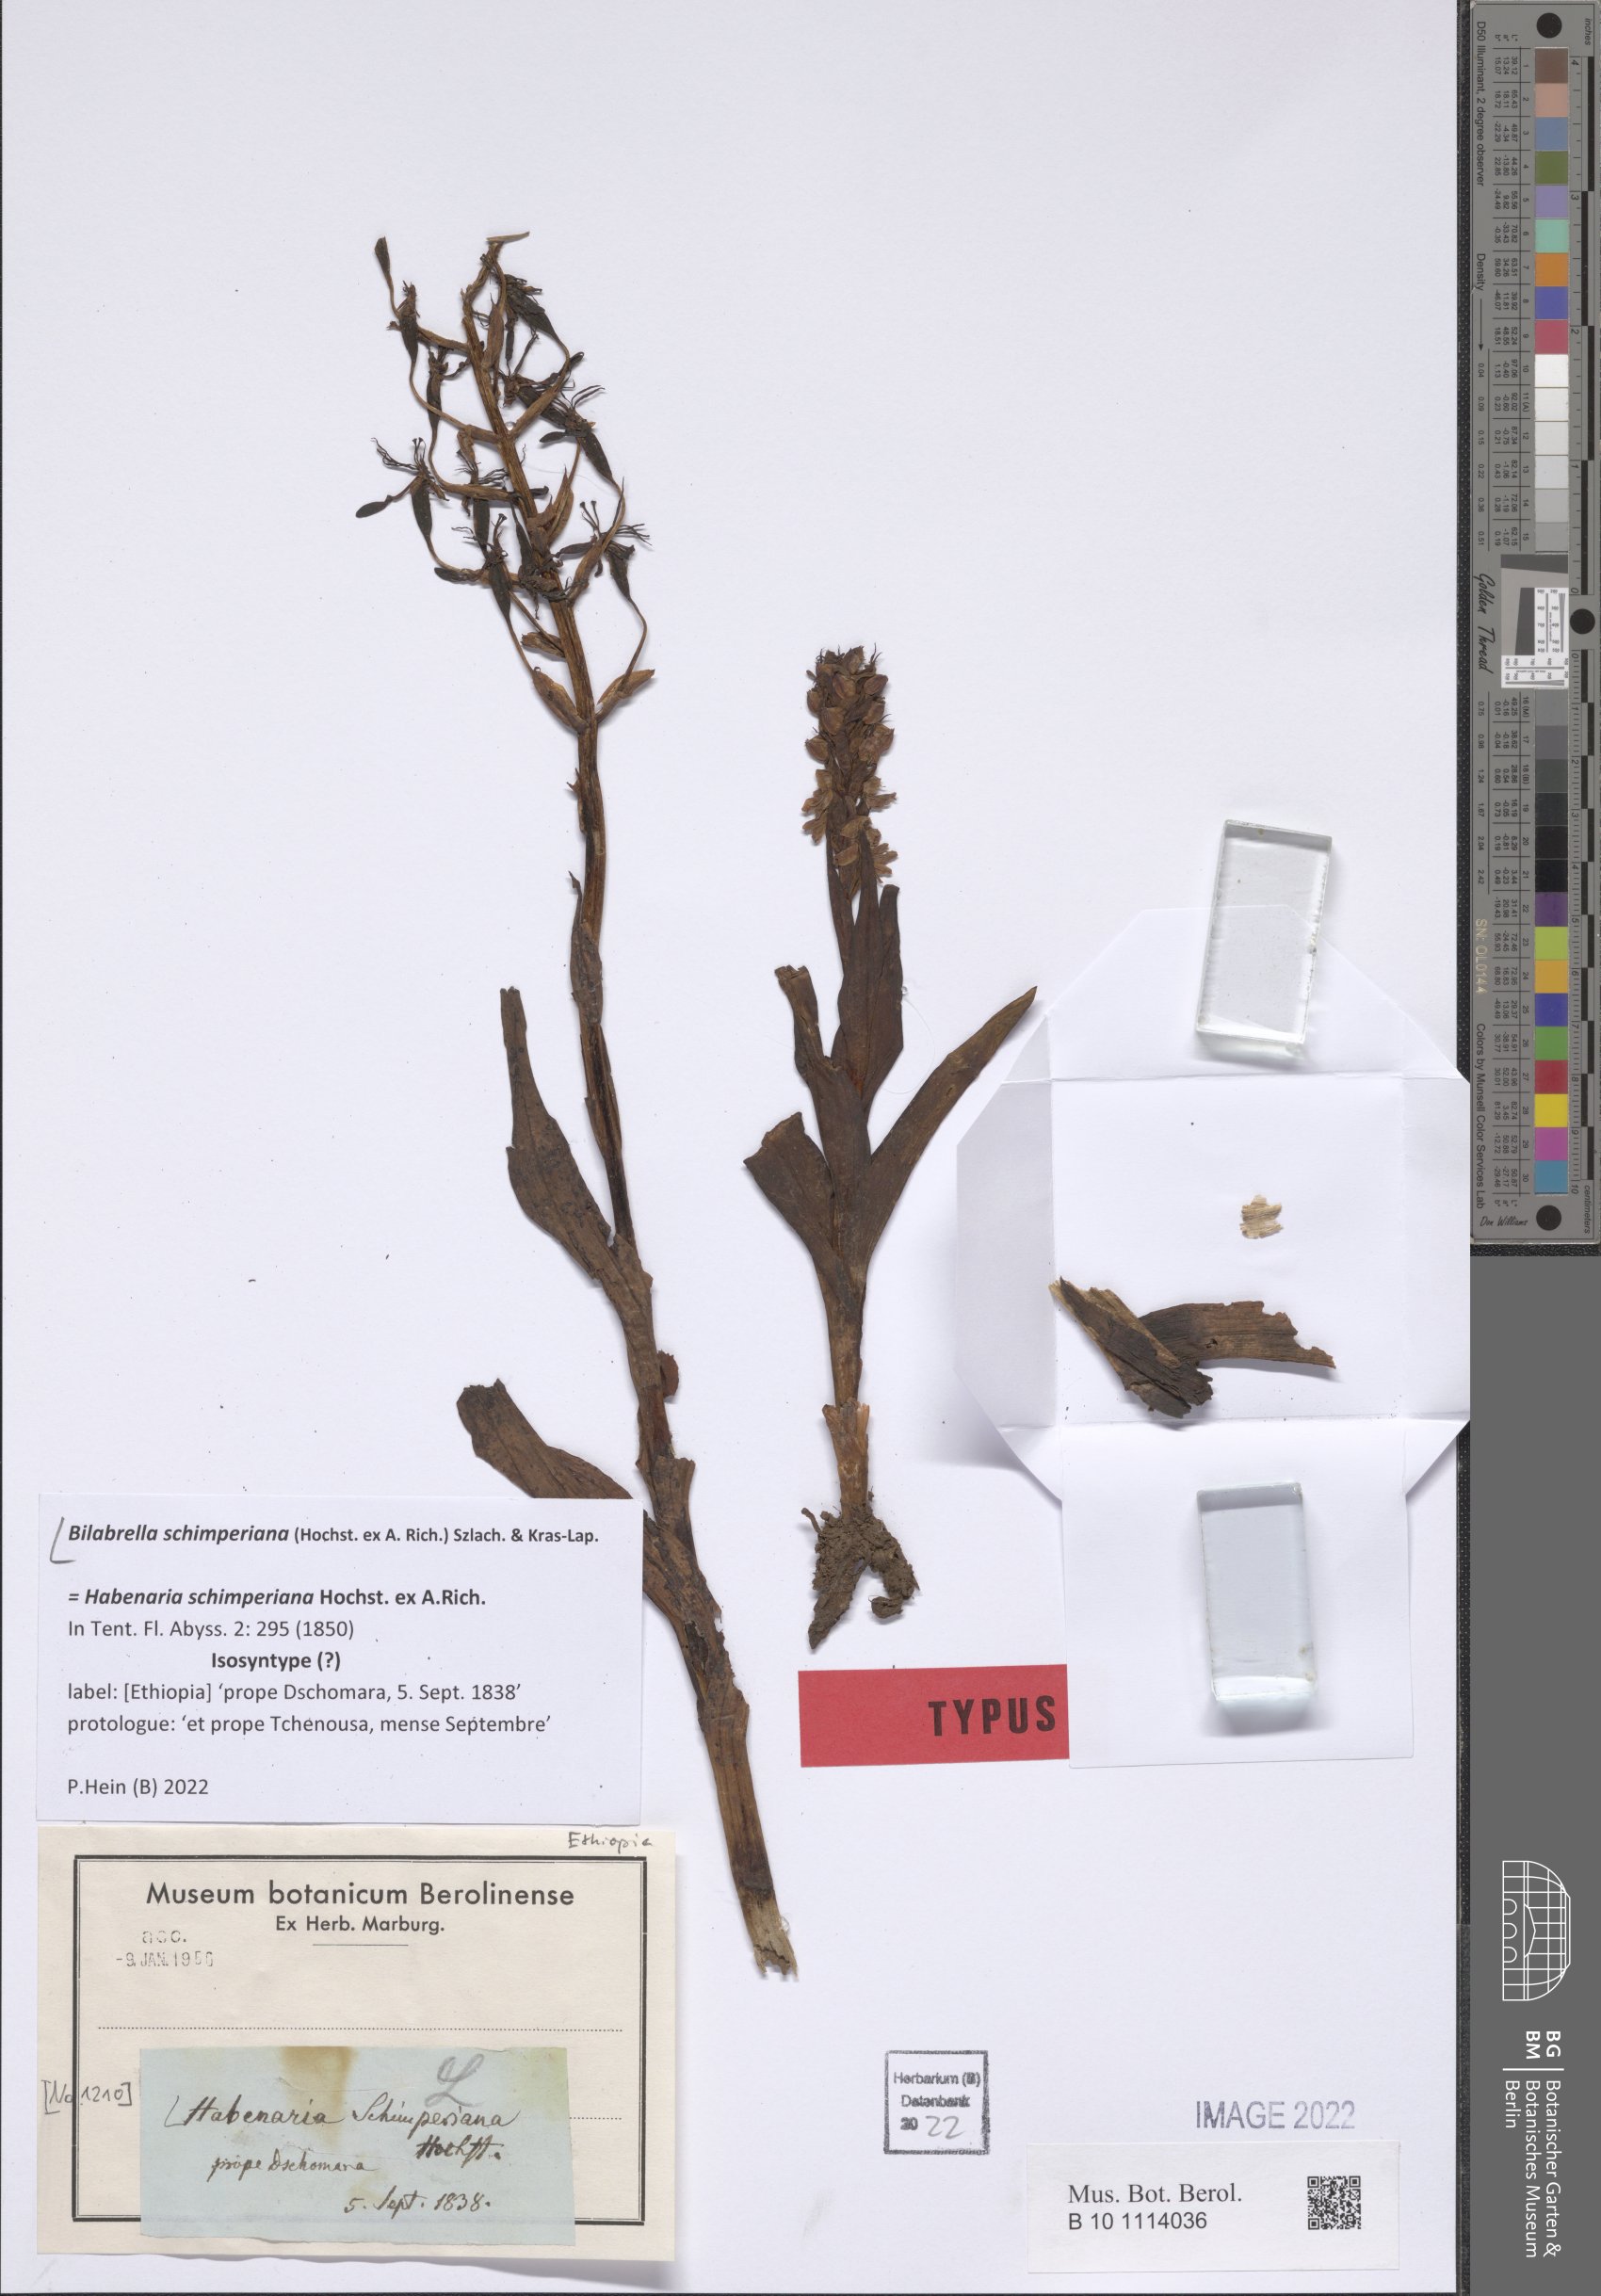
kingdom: Plantae
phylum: Tracheophyta
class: Liliopsida
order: Asparagales
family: Orchidaceae
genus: Habenaria
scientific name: Habenaria schimperiana
